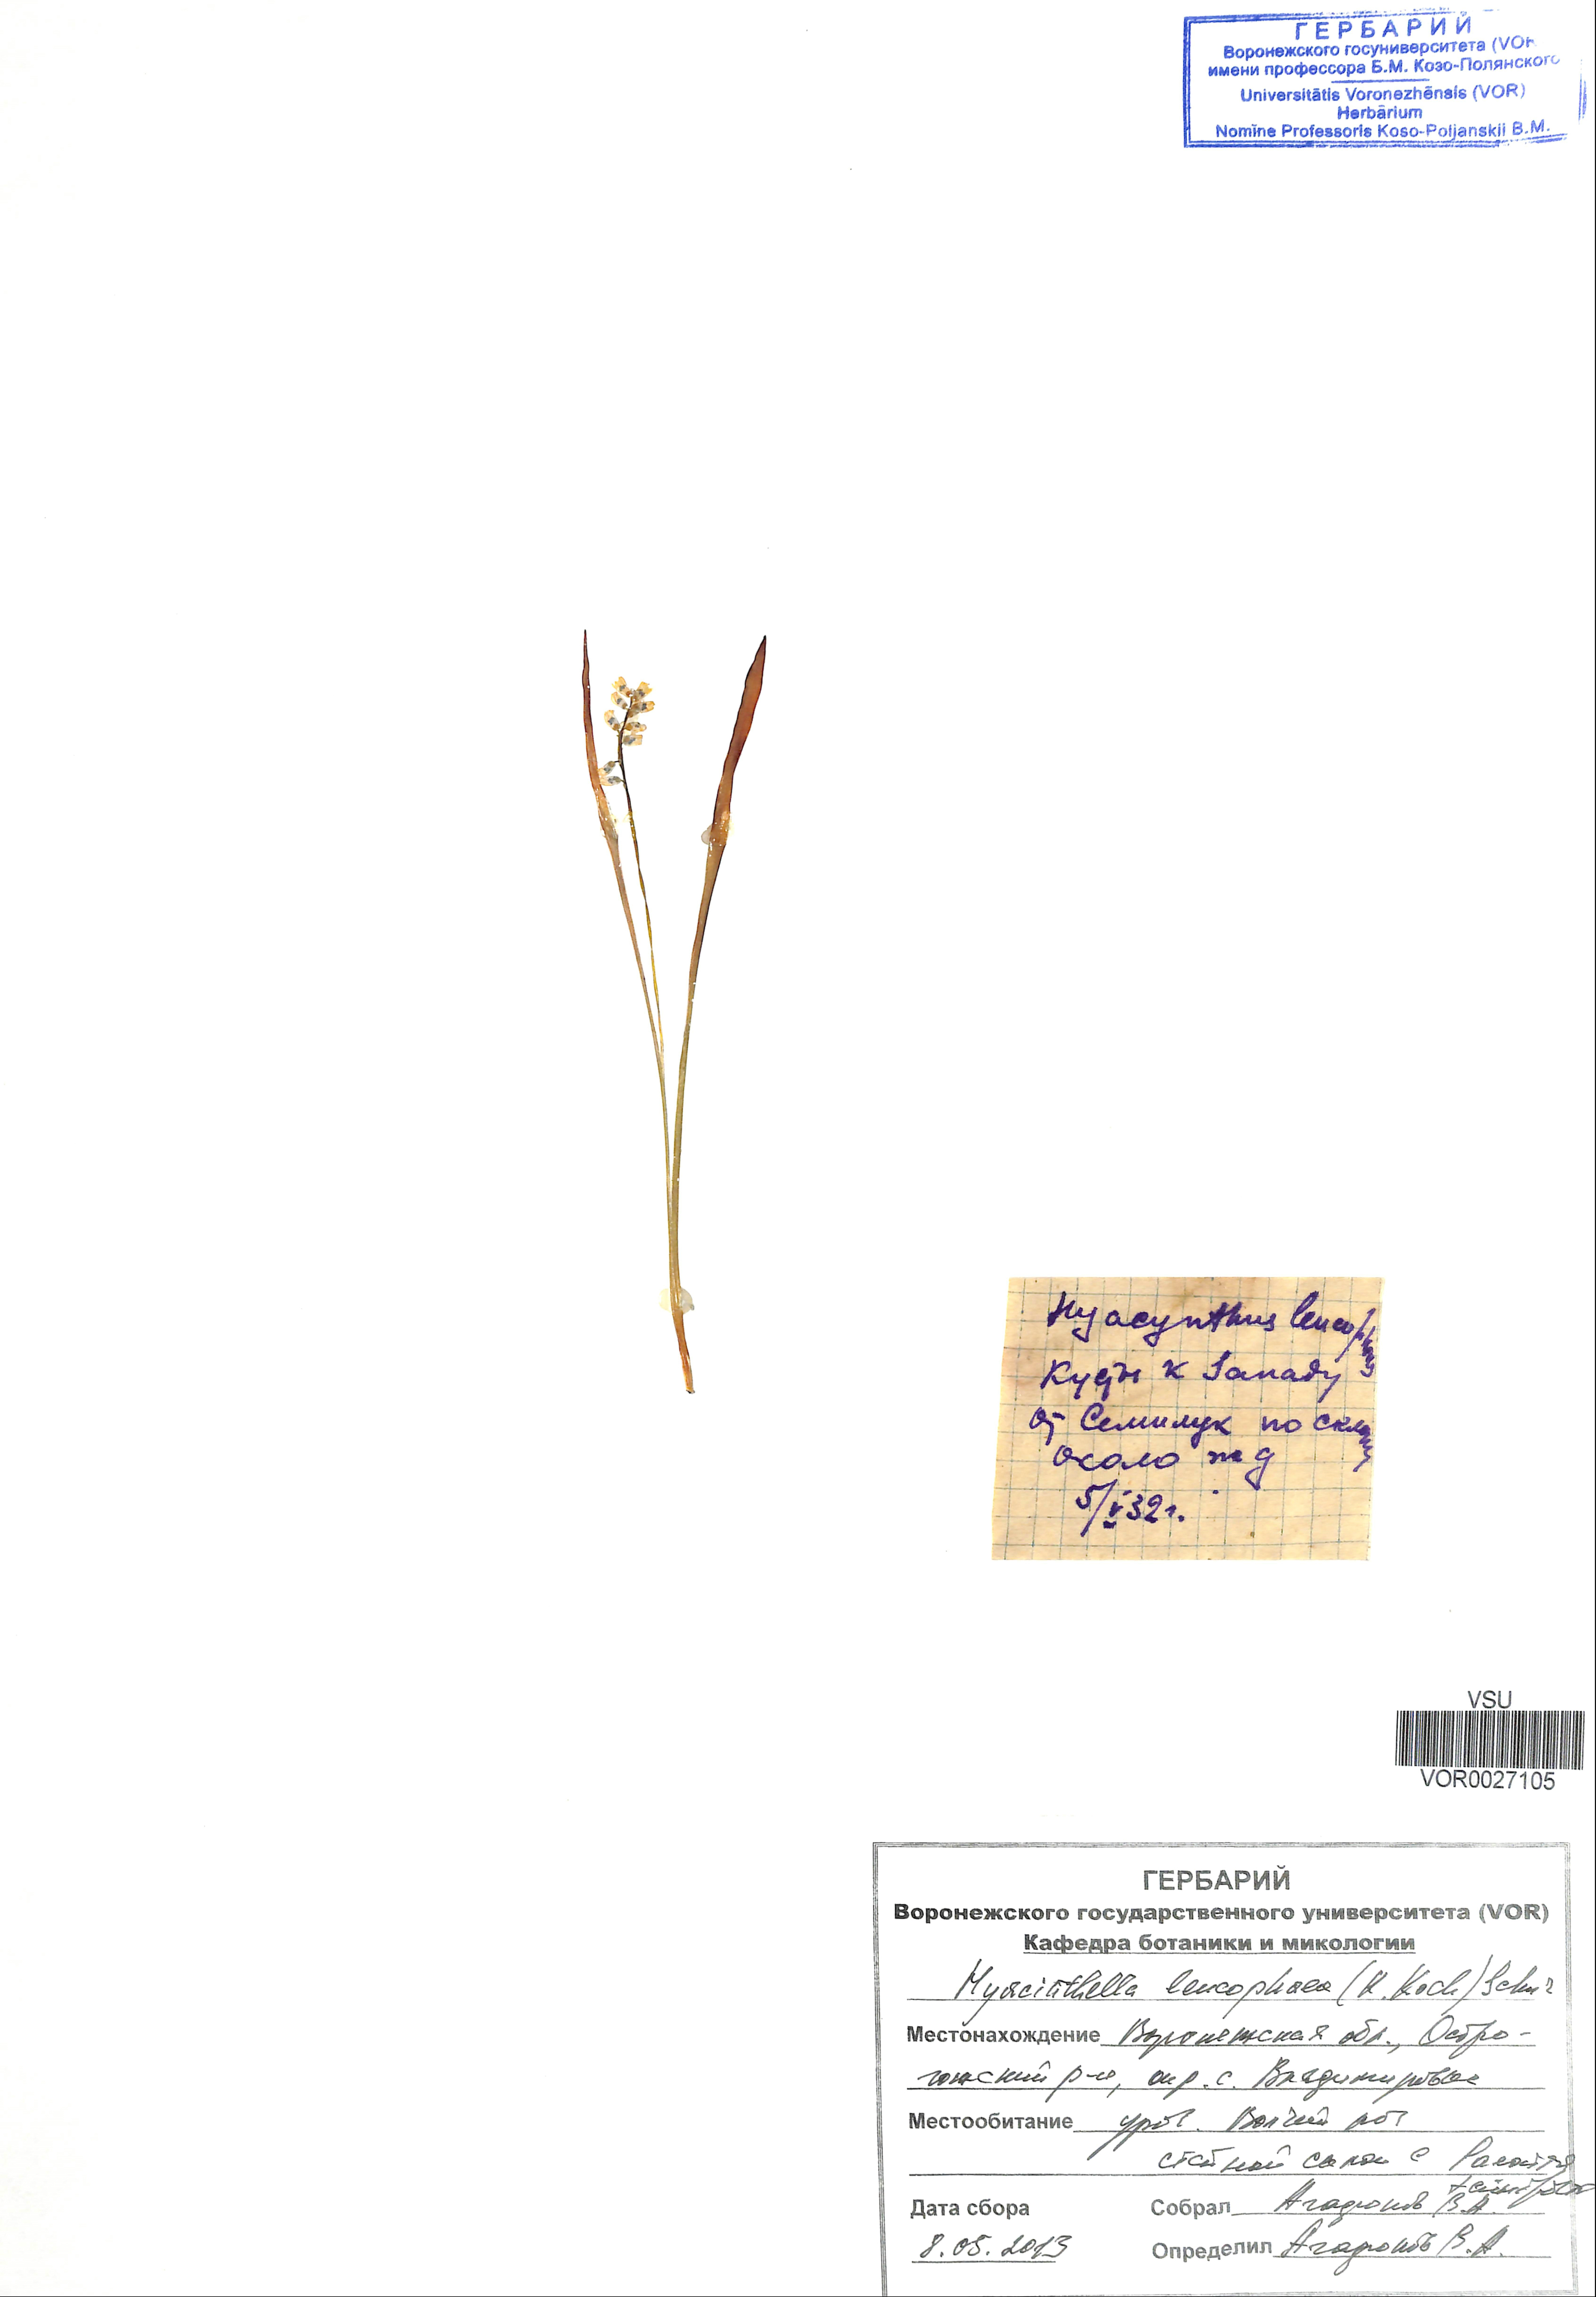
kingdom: Plantae
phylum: Tracheophyta
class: Liliopsida
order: Asparagales
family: Asparagaceae
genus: Hyacinthella
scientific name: Hyacinthella leucophaea
